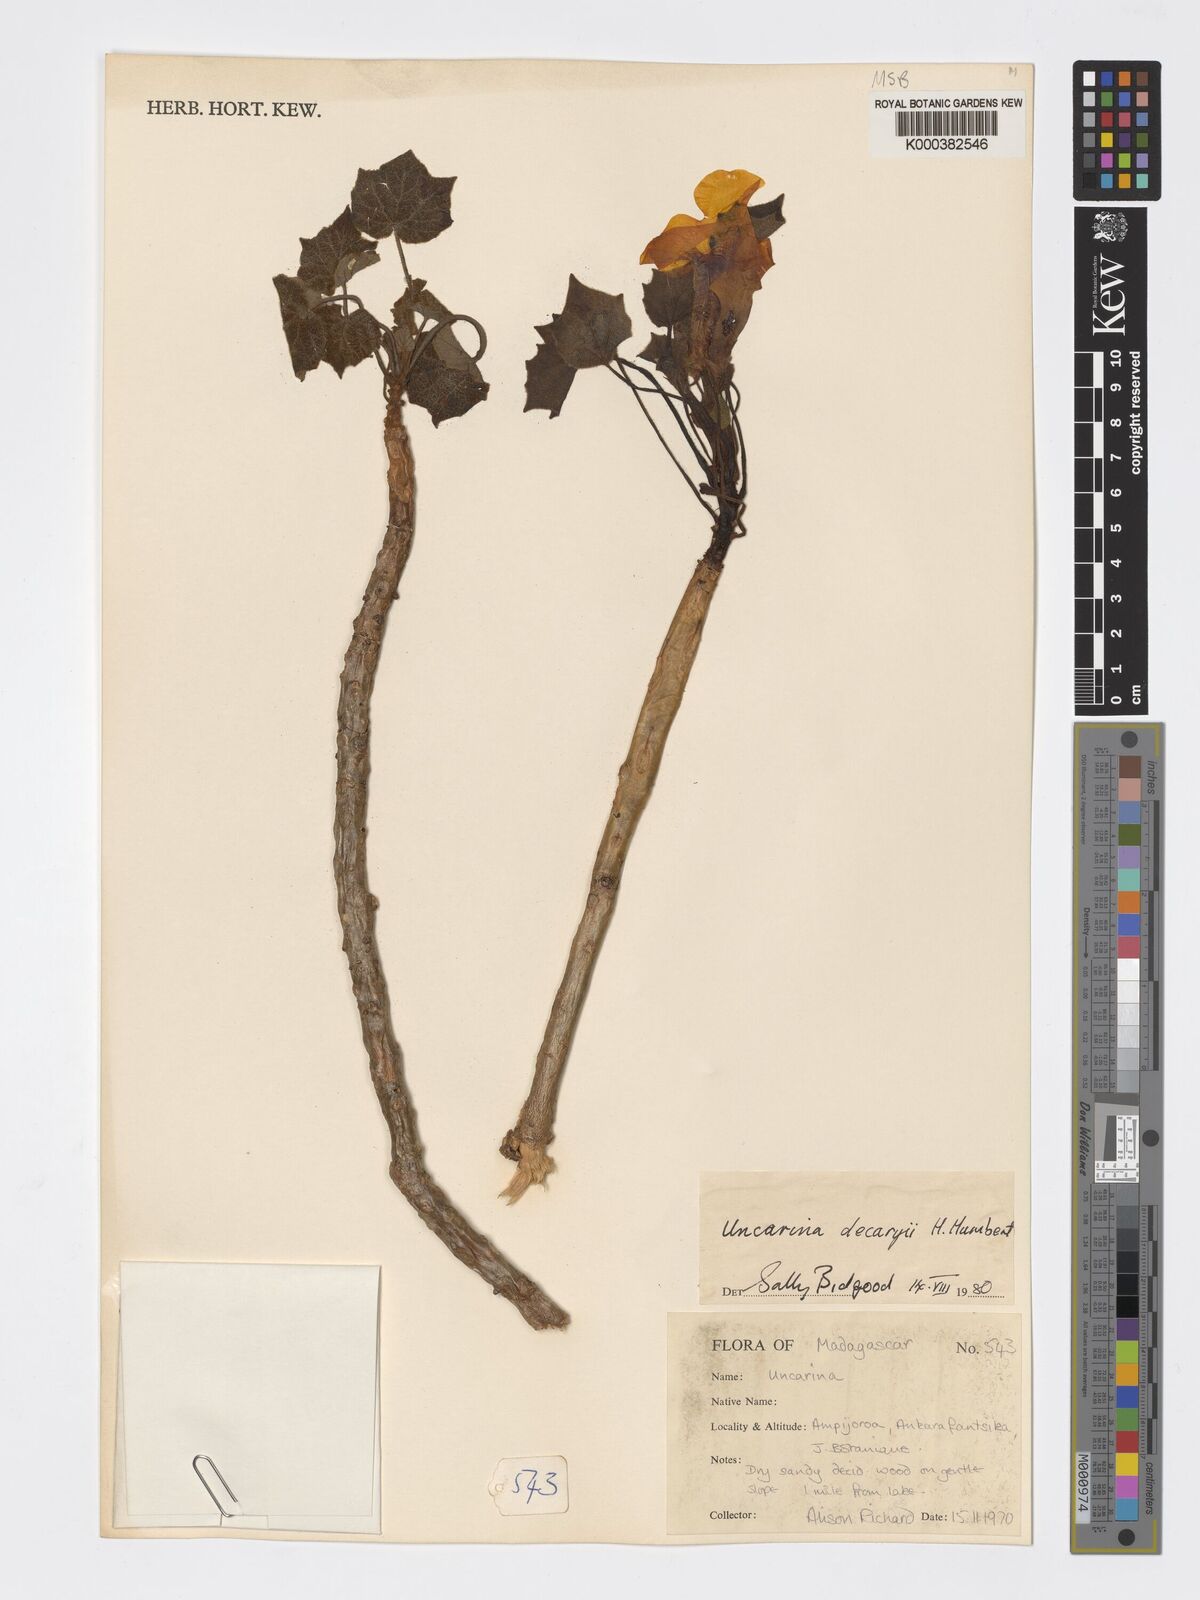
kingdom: Plantae
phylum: Tracheophyta
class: Magnoliopsida
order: Lamiales
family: Pedaliaceae
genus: Uncarina
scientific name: Uncarina decaryi
